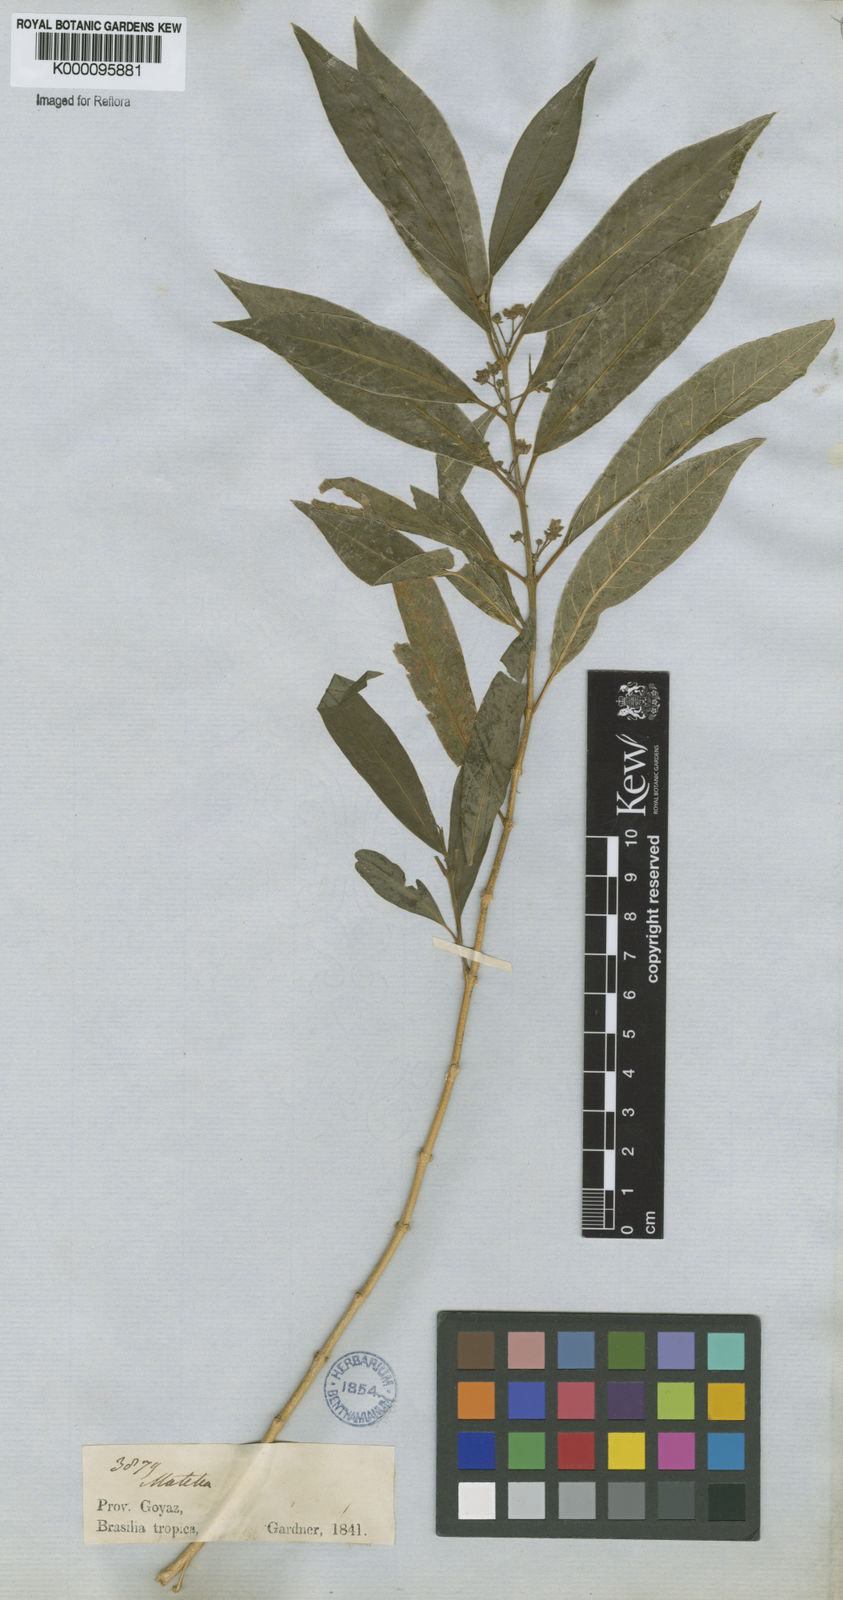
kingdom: Plantae
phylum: Tracheophyta
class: Magnoliopsida
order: Gentianales
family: Apocynaceae
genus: Matelea
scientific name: Matelea pedalis
